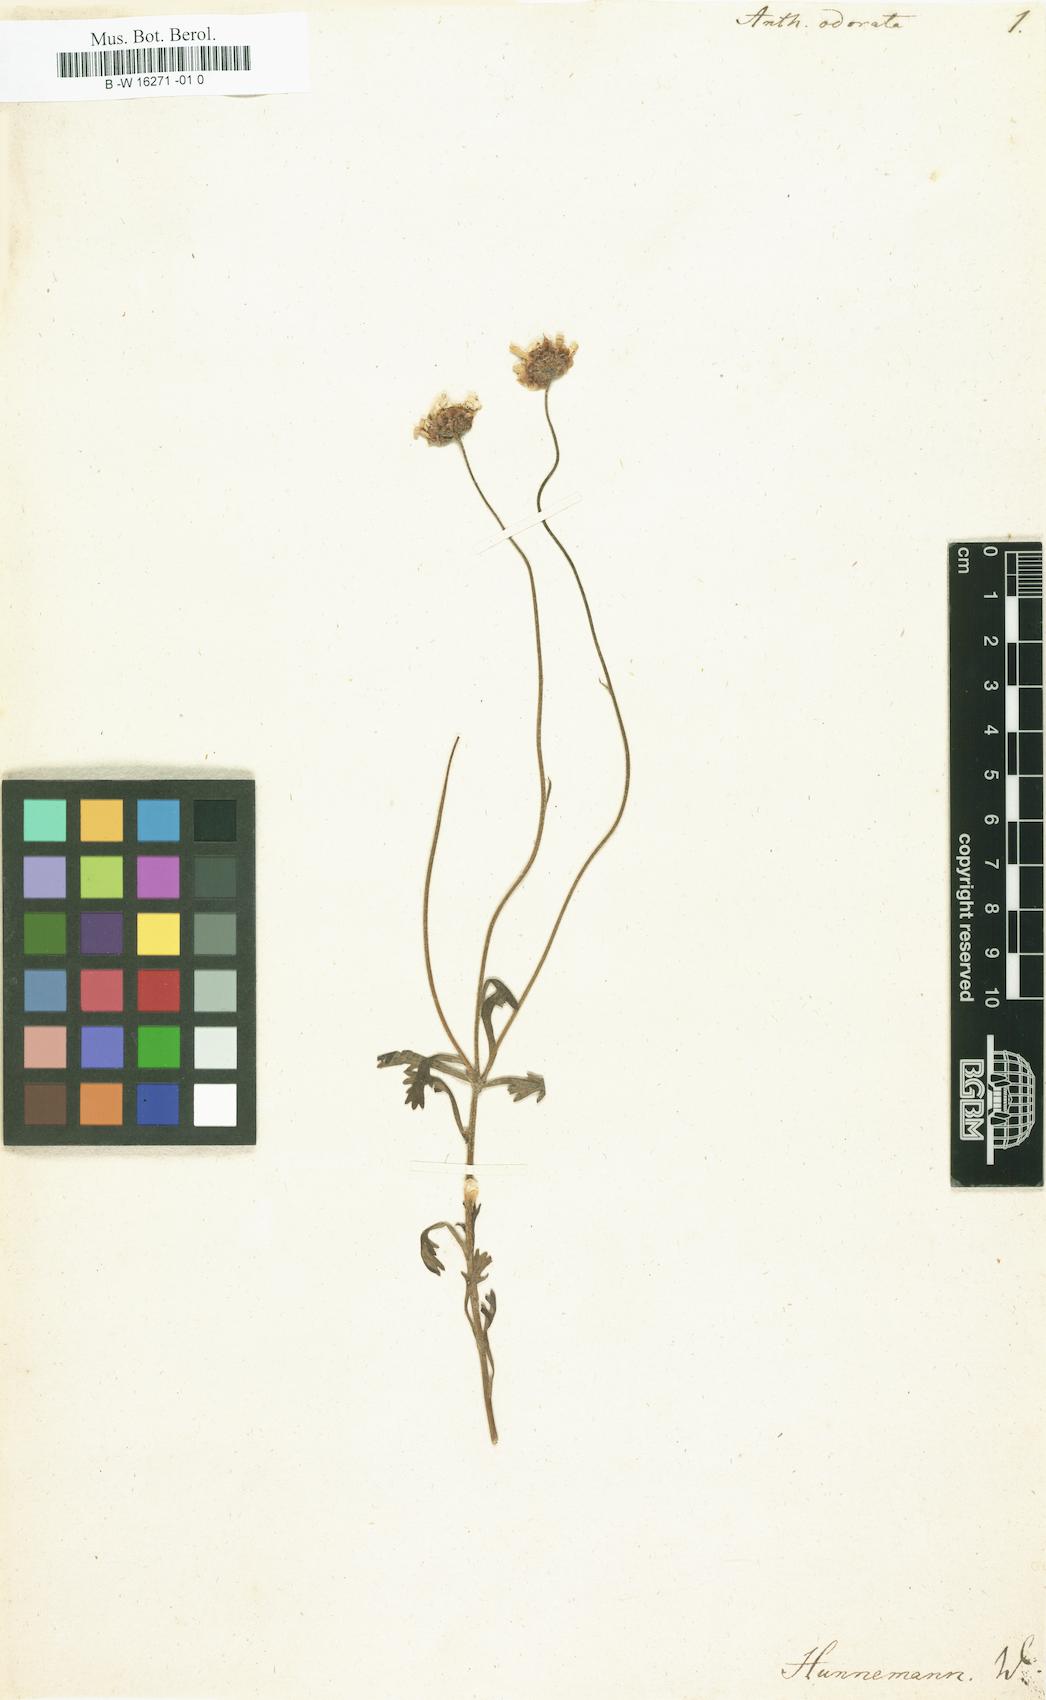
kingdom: Plantae
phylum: Tracheophyta
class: Magnoliopsida
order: Asterales
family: Asteraceae
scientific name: Asteraceae
